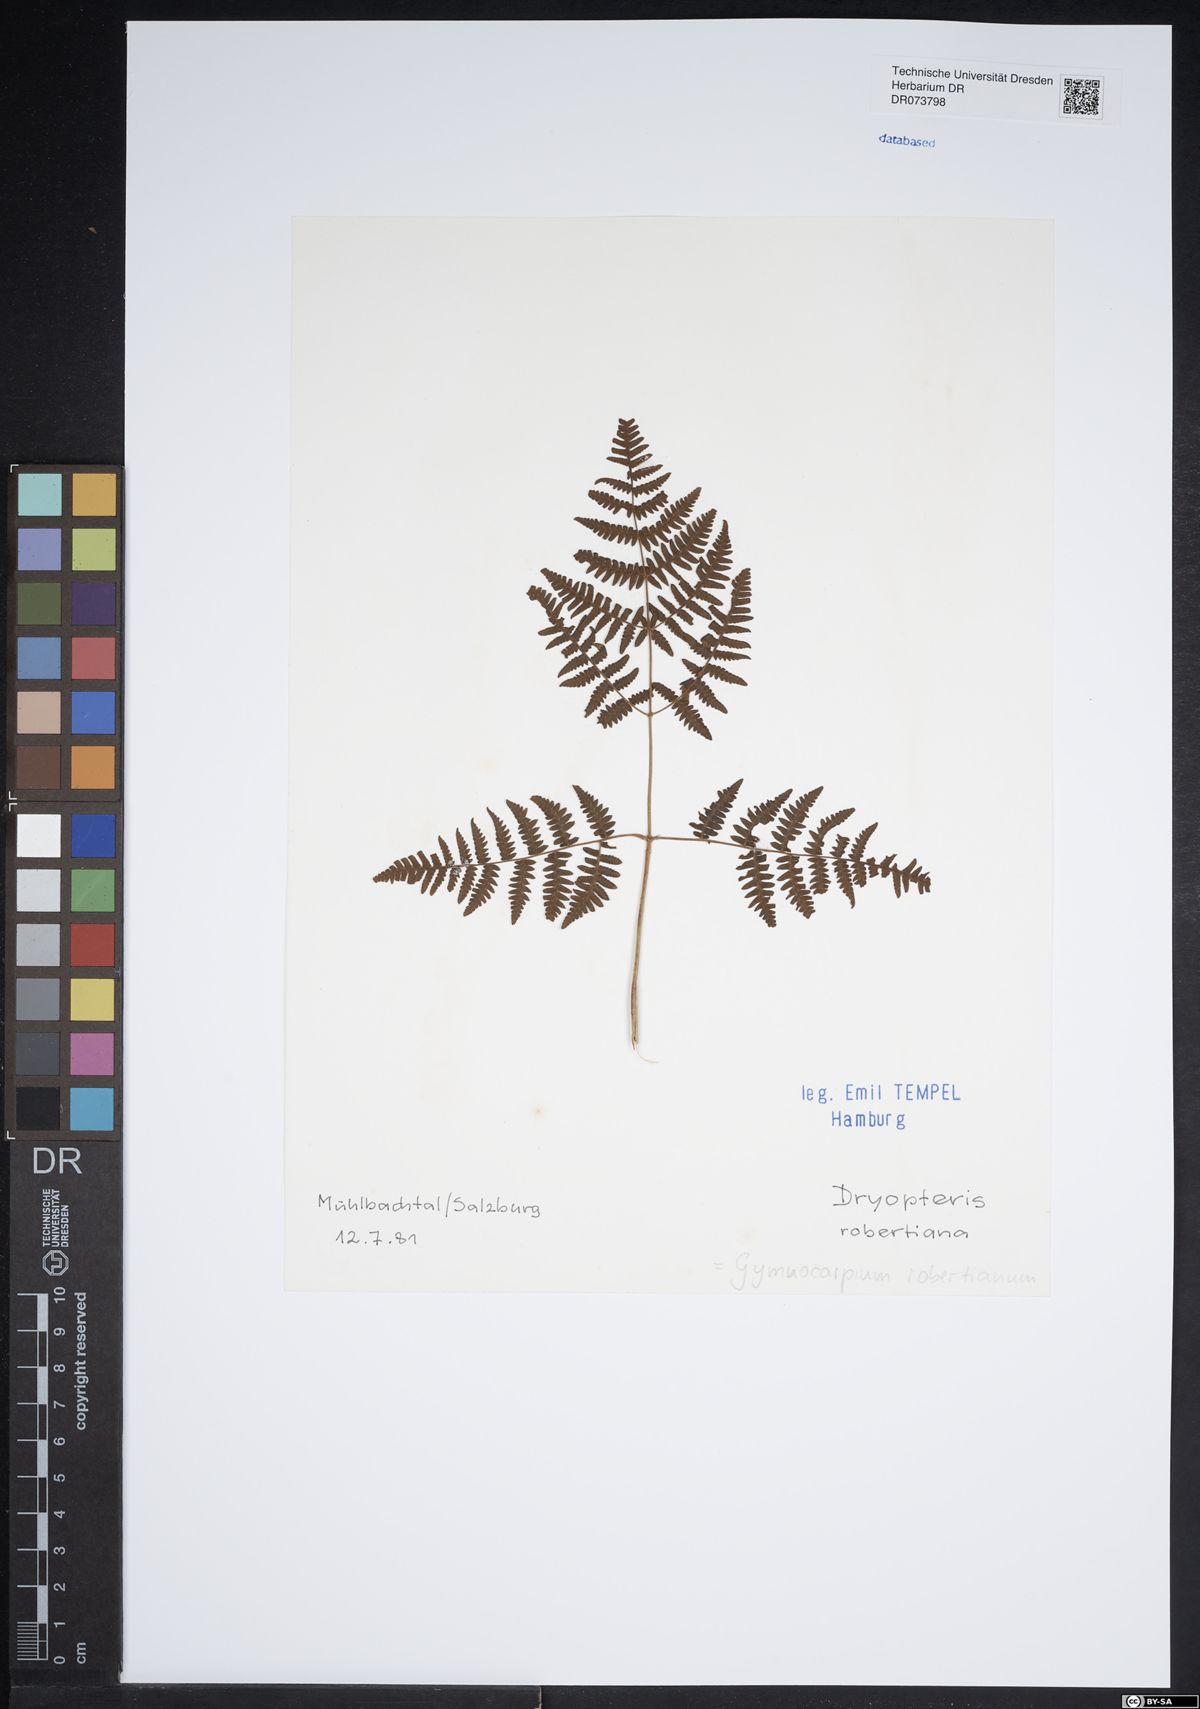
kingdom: Plantae
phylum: Tracheophyta
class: Polypodiopsida
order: Polypodiales
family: Cystopteridaceae
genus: Gymnocarpium
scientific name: Gymnocarpium robertianum
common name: Limestone fern
